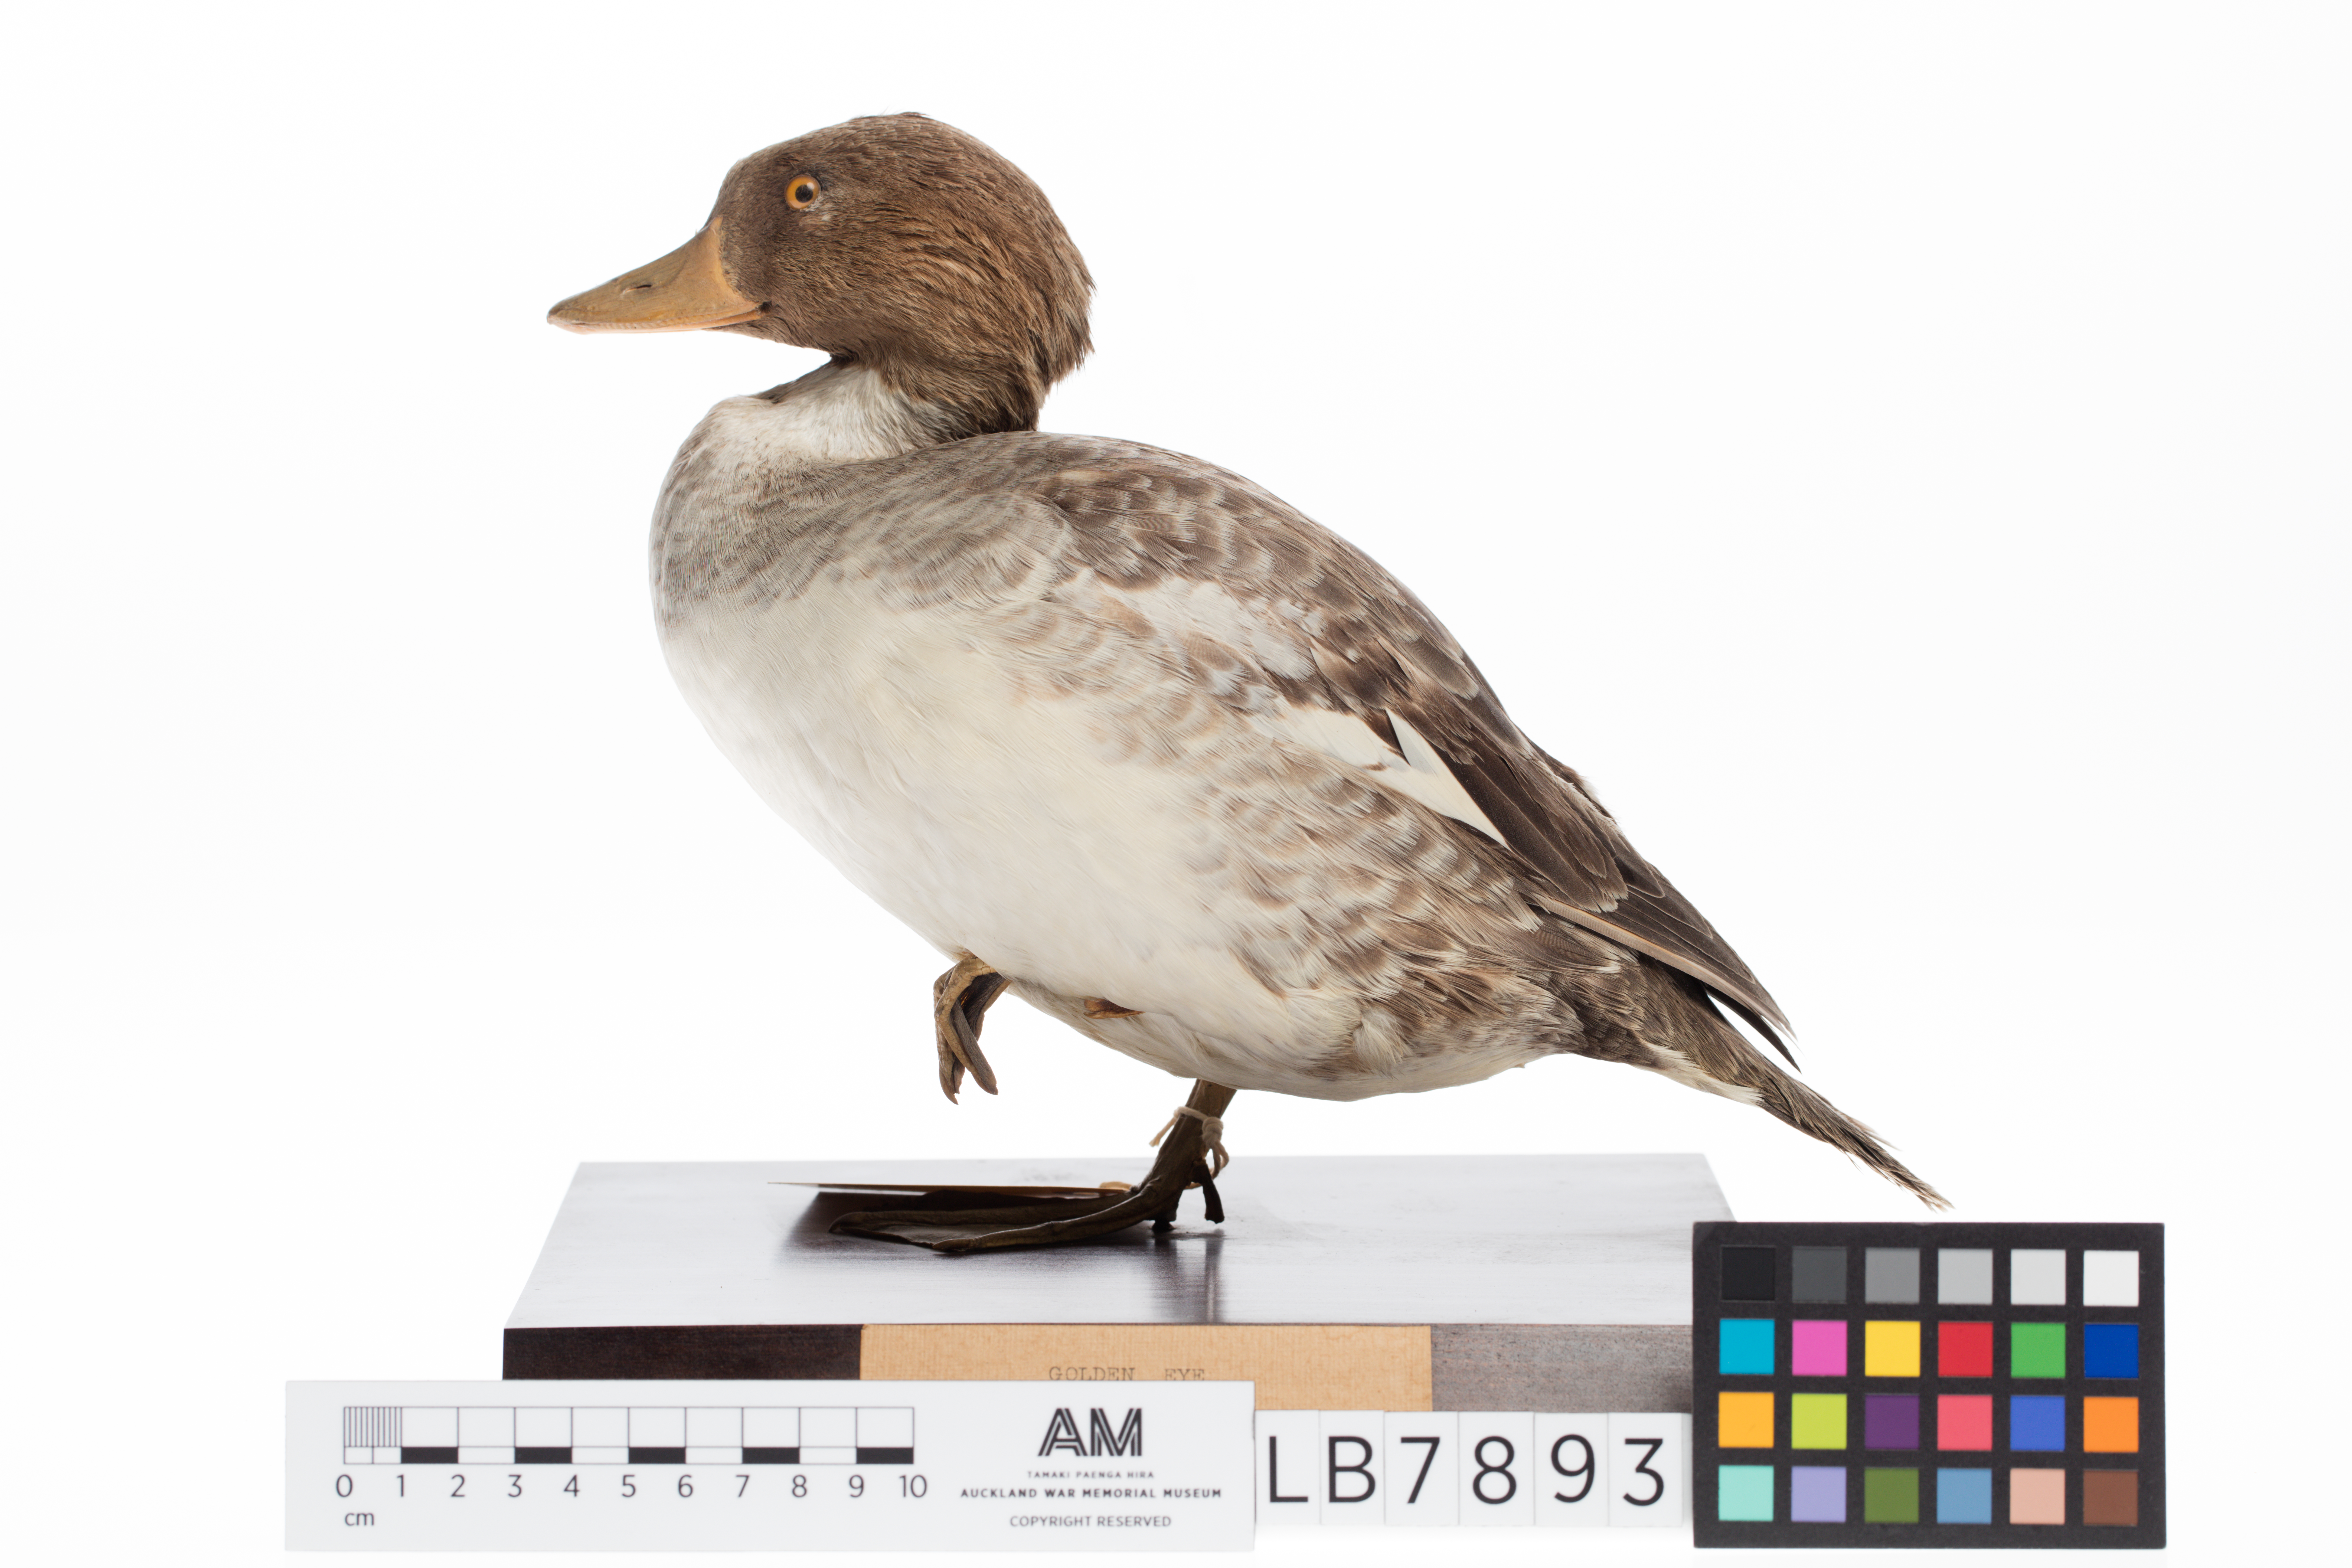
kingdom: Animalia
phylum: Chordata
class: Aves
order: Anseriformes
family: Anatidae
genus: Bucephala
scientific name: Bucephala clangula
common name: Common goldeneye
